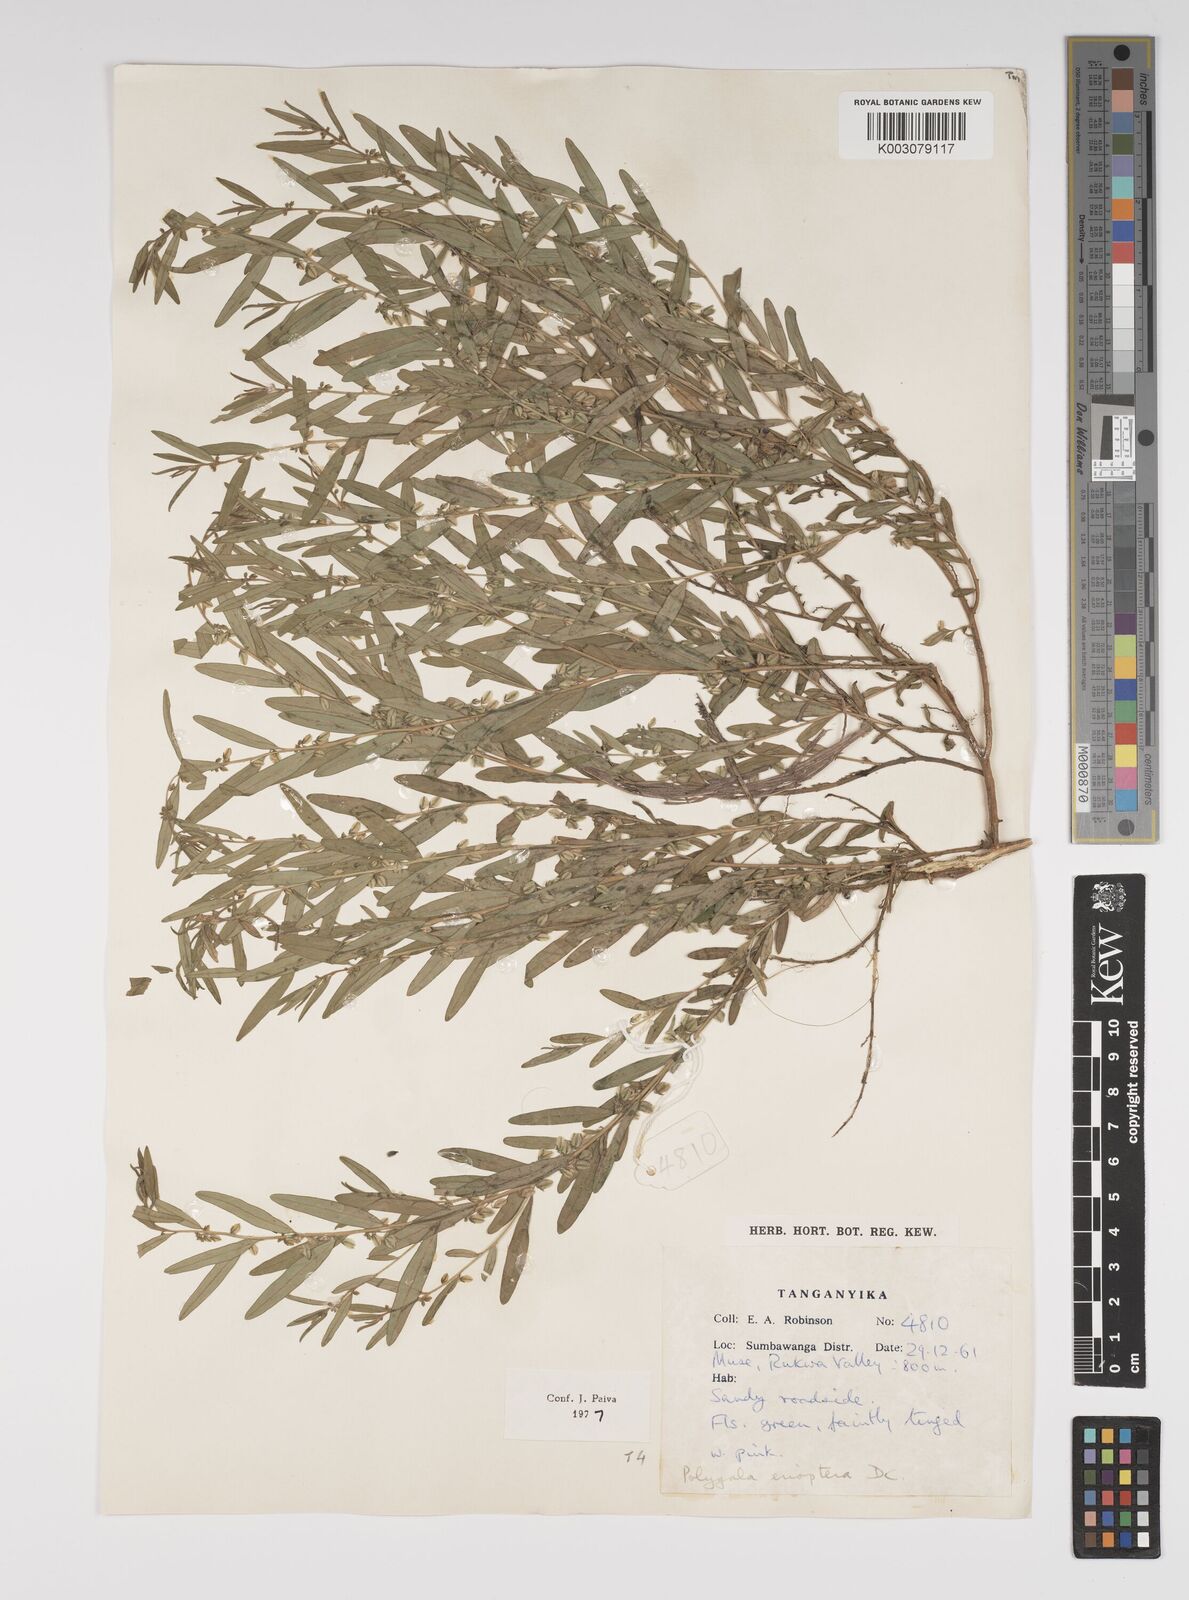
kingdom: Plantae
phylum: Tracheophyta
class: Magnoliopsida
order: Fabales
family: Polygalaceae
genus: Polygala
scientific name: Polygala erioptera
